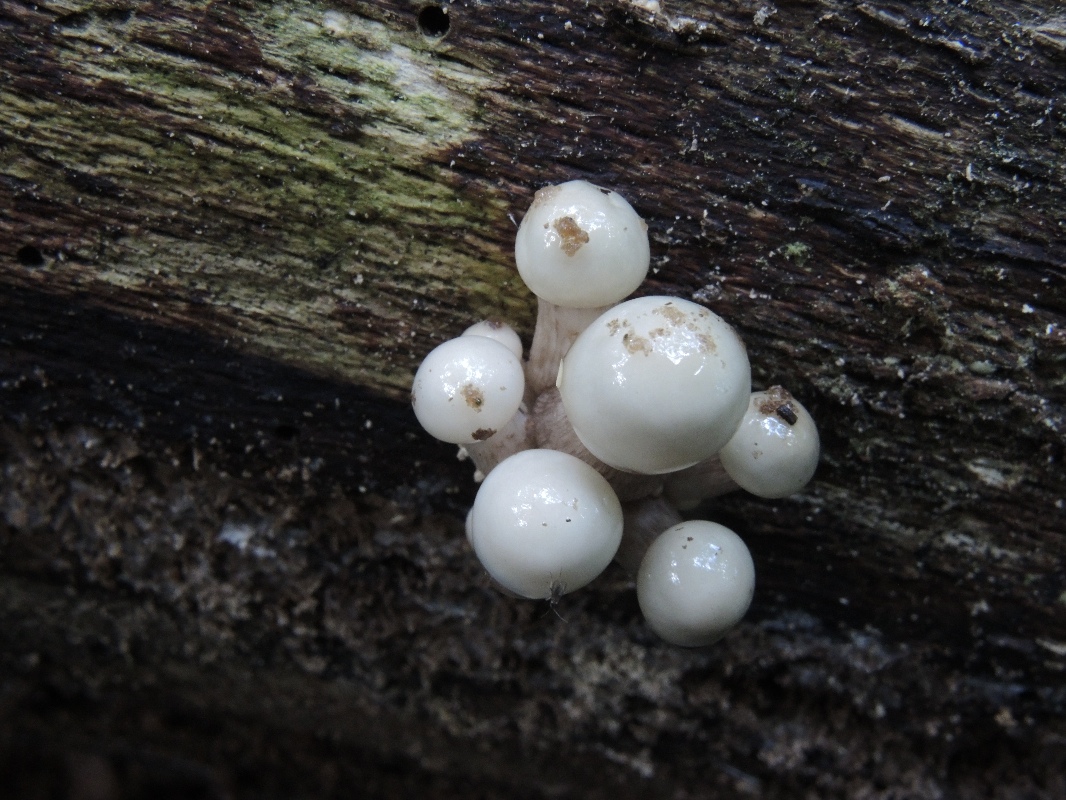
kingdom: Fungi
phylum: Basidiomycota
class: Agaricomycetes
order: Agaricales
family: Physalacriaceae
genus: Mucidula
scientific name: Mucidula mucida
